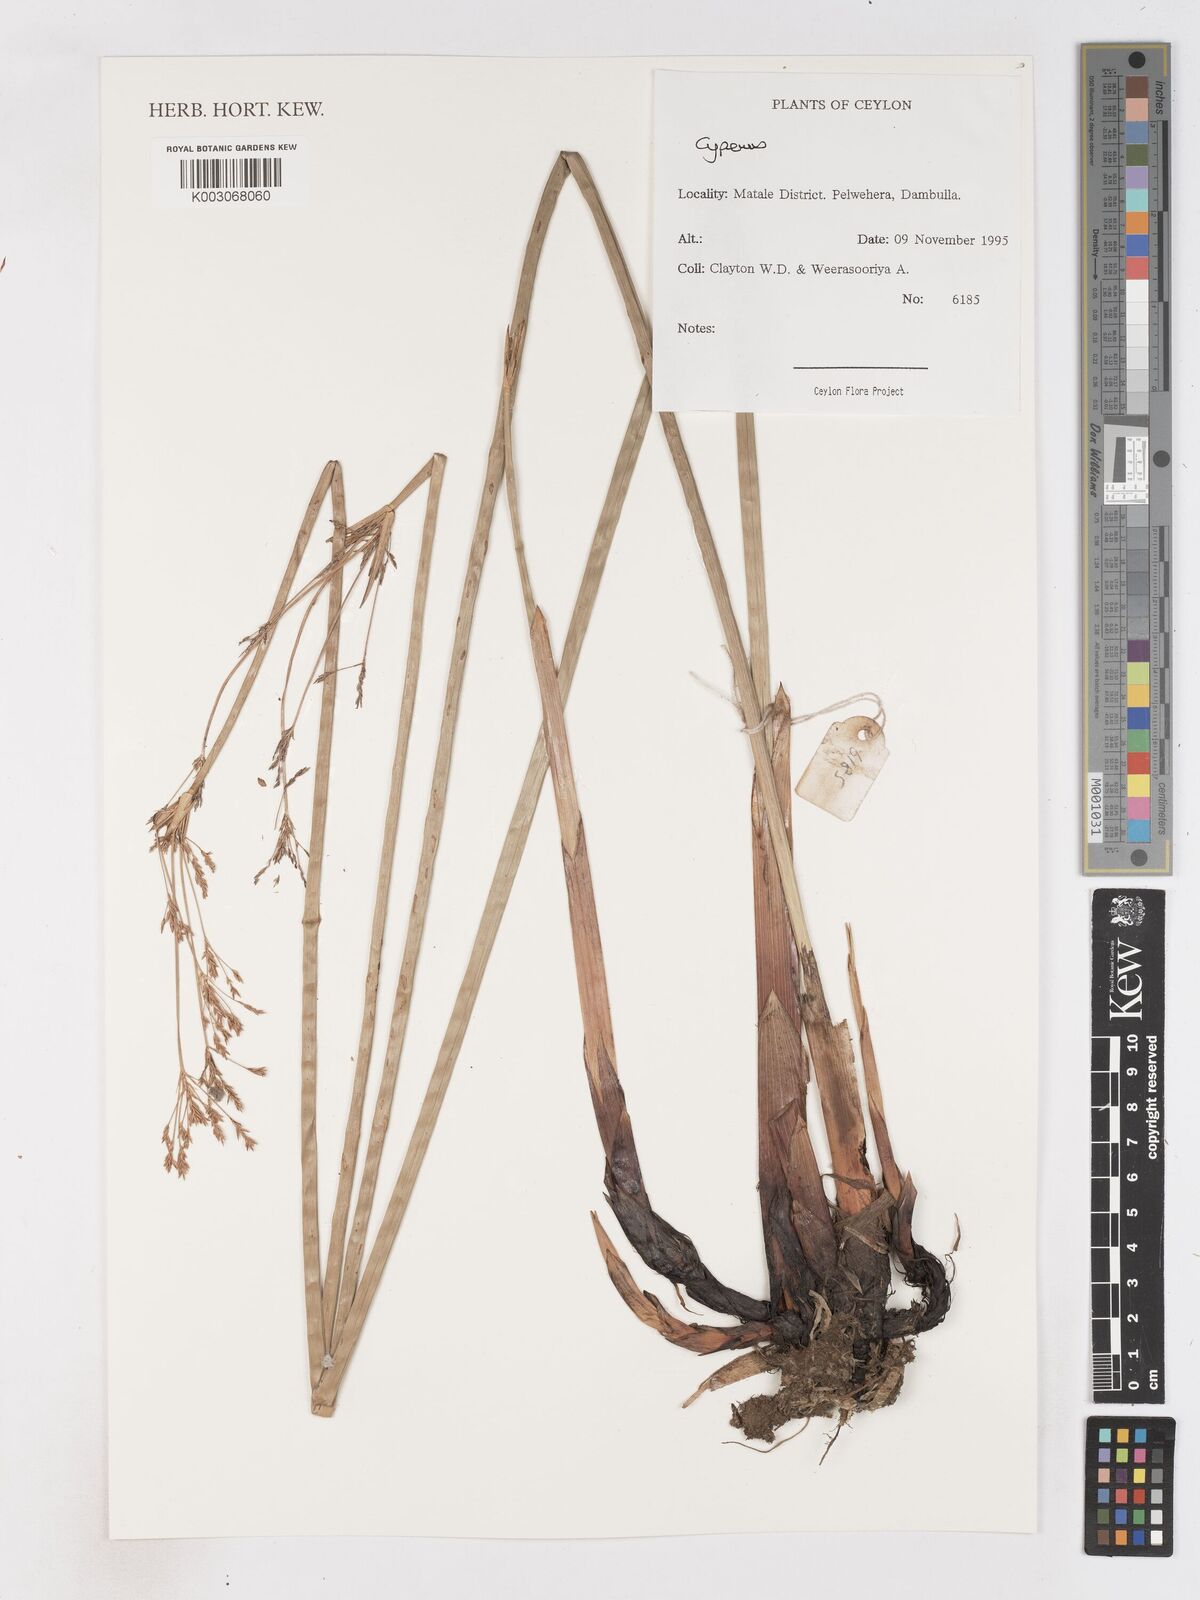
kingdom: Plantae
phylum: Tracheophyta
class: Liliopsida
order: Poales
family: Cyperaceae
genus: Cyperus
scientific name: Cyperus
